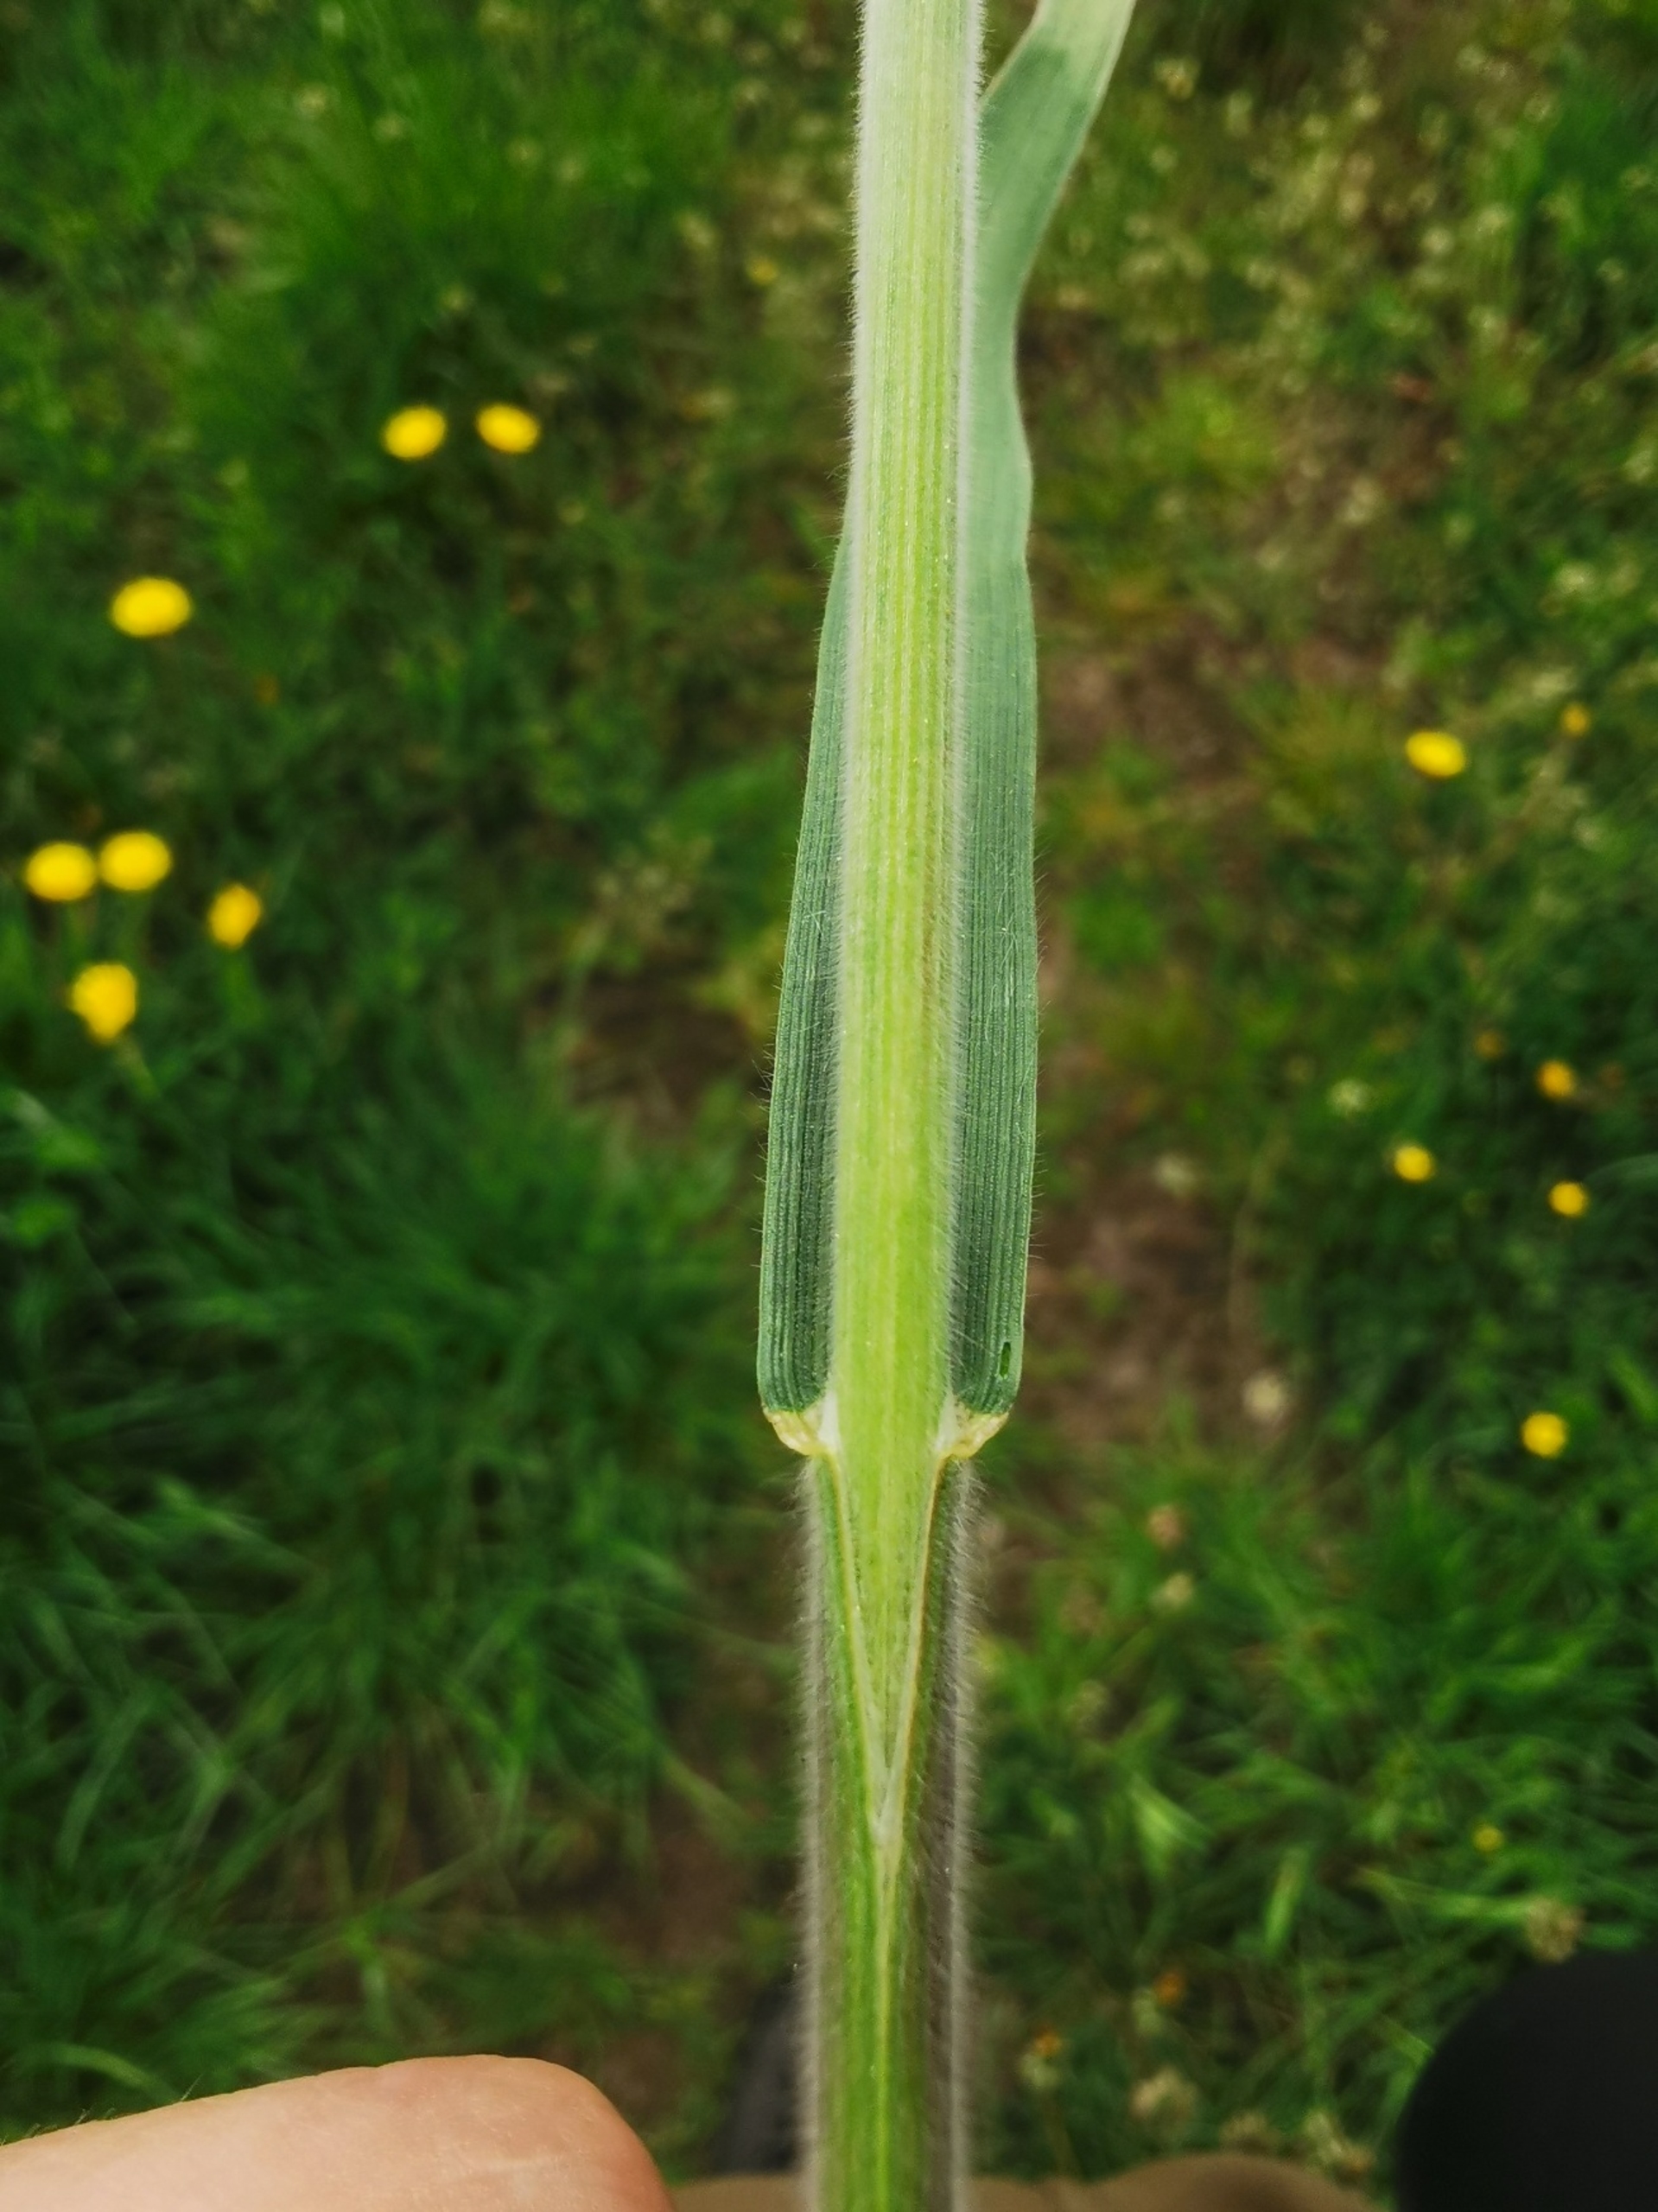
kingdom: Plantae
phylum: Tracheophyta
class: Liliopsida
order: Poales
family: Poaceae
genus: Bromus
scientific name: Bromus hordeaceus
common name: Blød hejre
